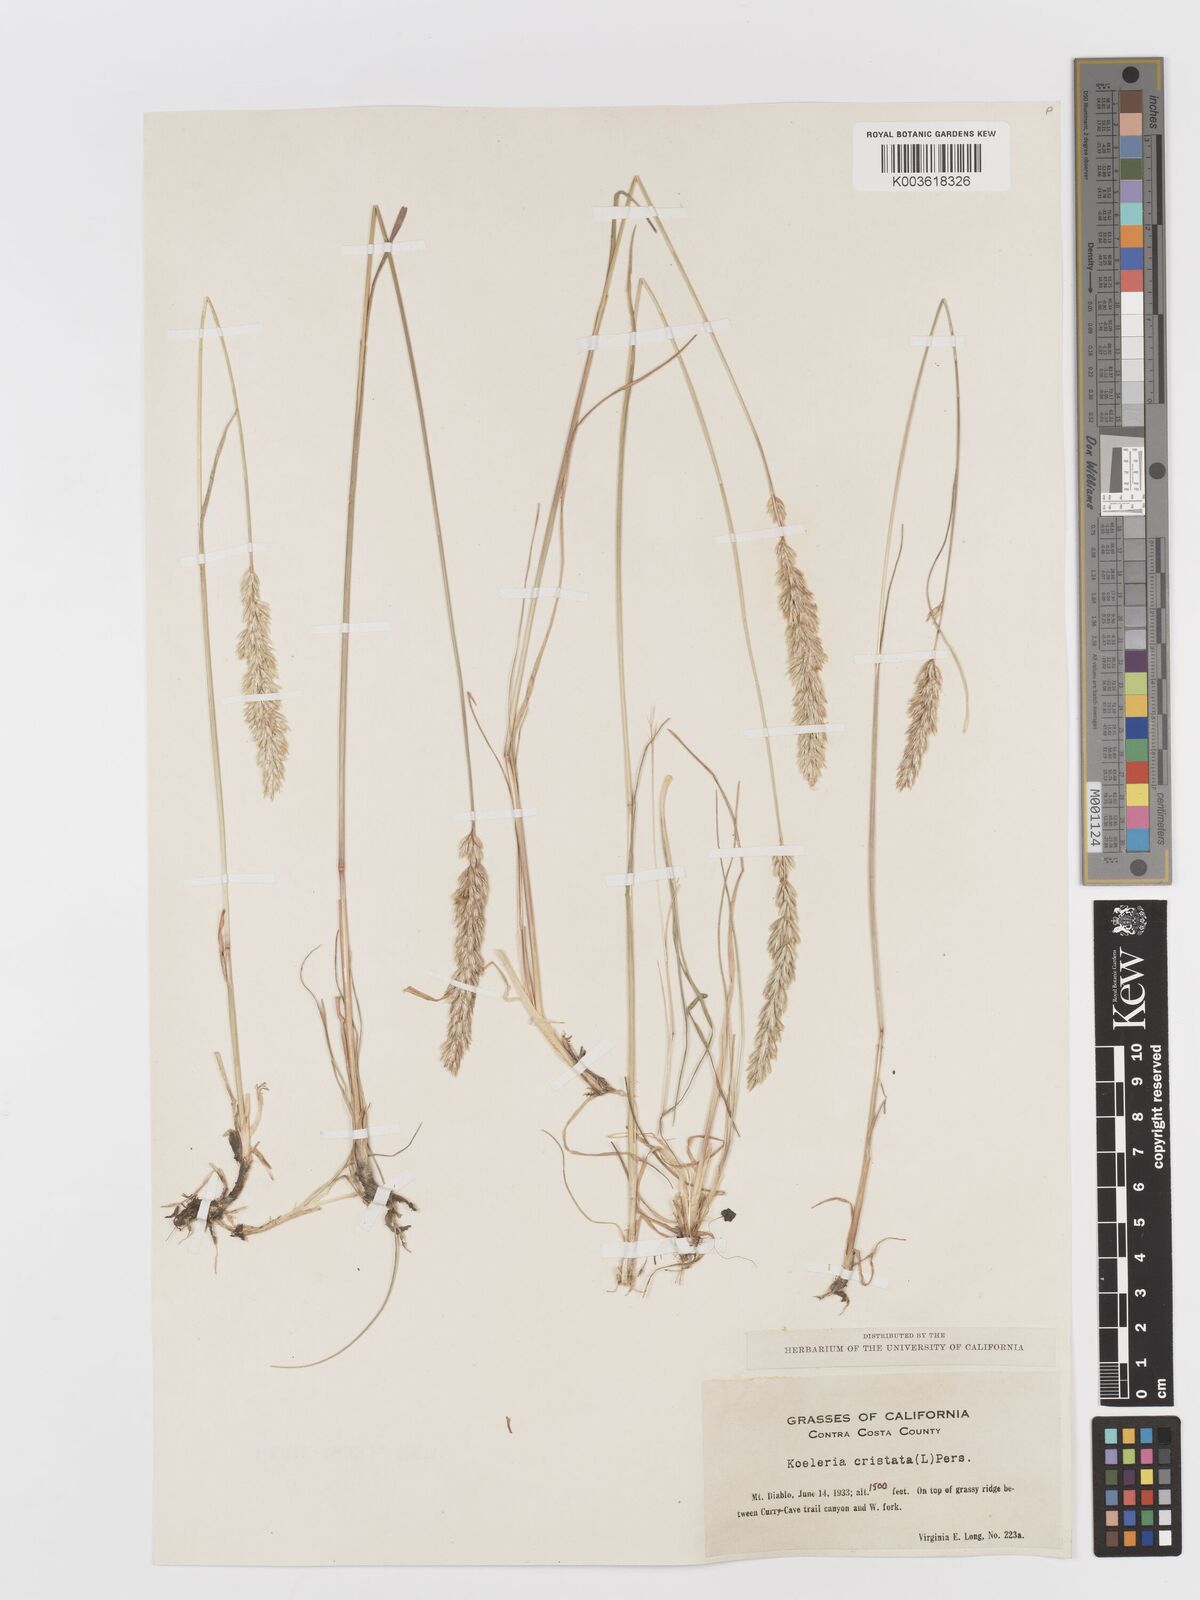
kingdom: Plantae
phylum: Tracheophyta
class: Liliopsida
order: Poales
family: Poaceae
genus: Koeleria
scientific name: Koeleria
